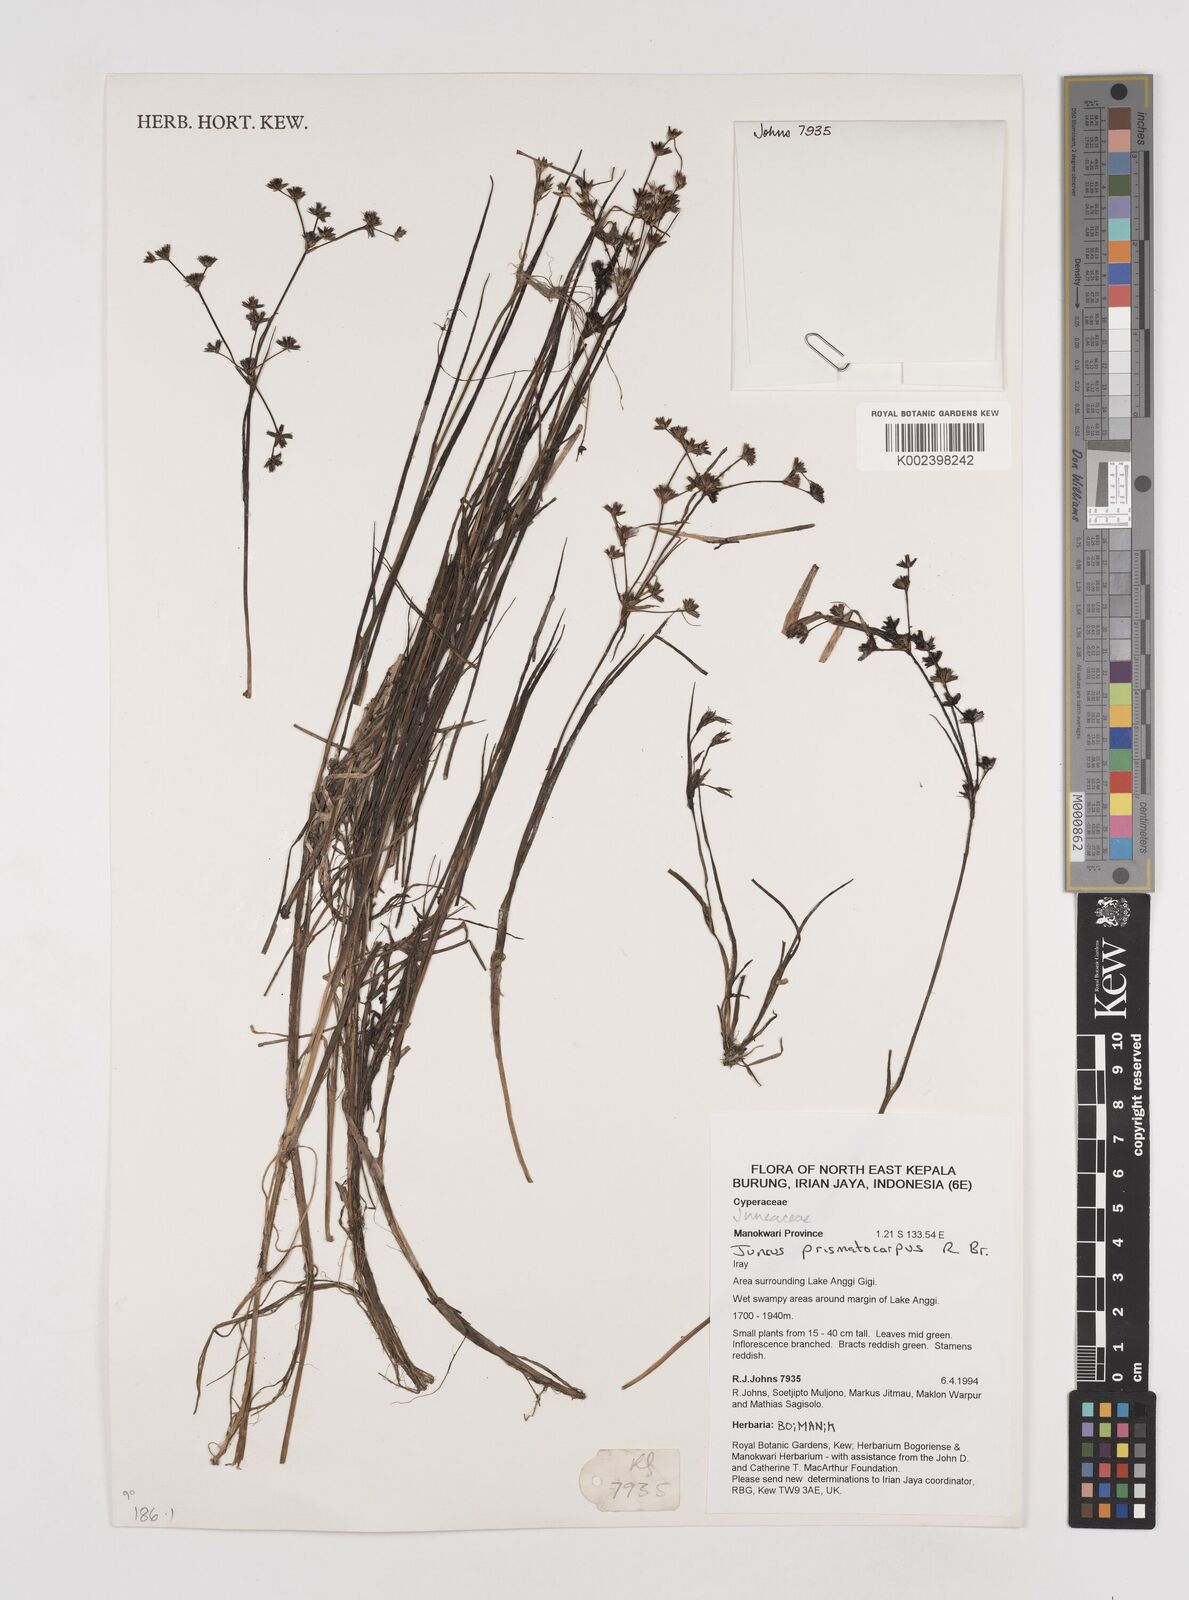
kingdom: Plantae
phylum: Tracheophyta
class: Liliopsida
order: Poales
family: Juncaceae
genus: Juncus
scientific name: Juncus wallichianus
